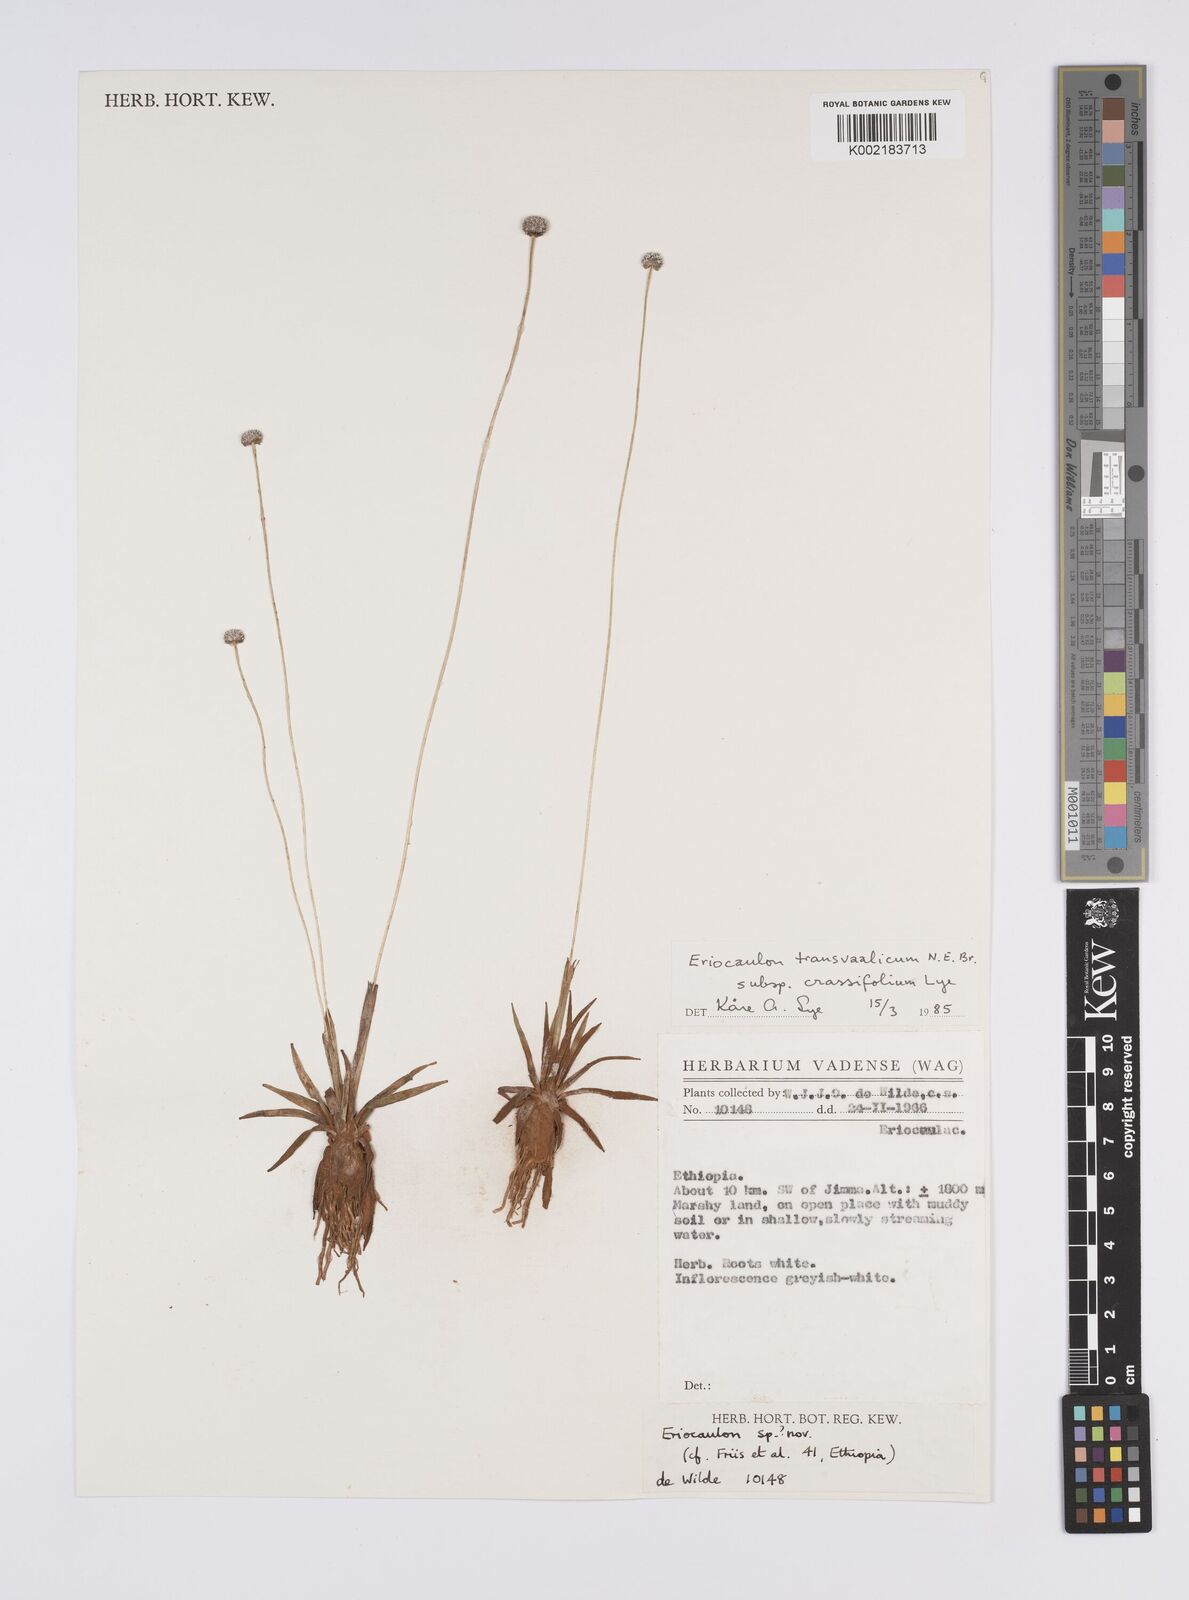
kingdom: Plantae
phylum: Tracheophyta
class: Liliopsida
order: Poales
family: Eriocaulaceae
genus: Eriocaulon
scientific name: Eriocaulon crassiusculum
